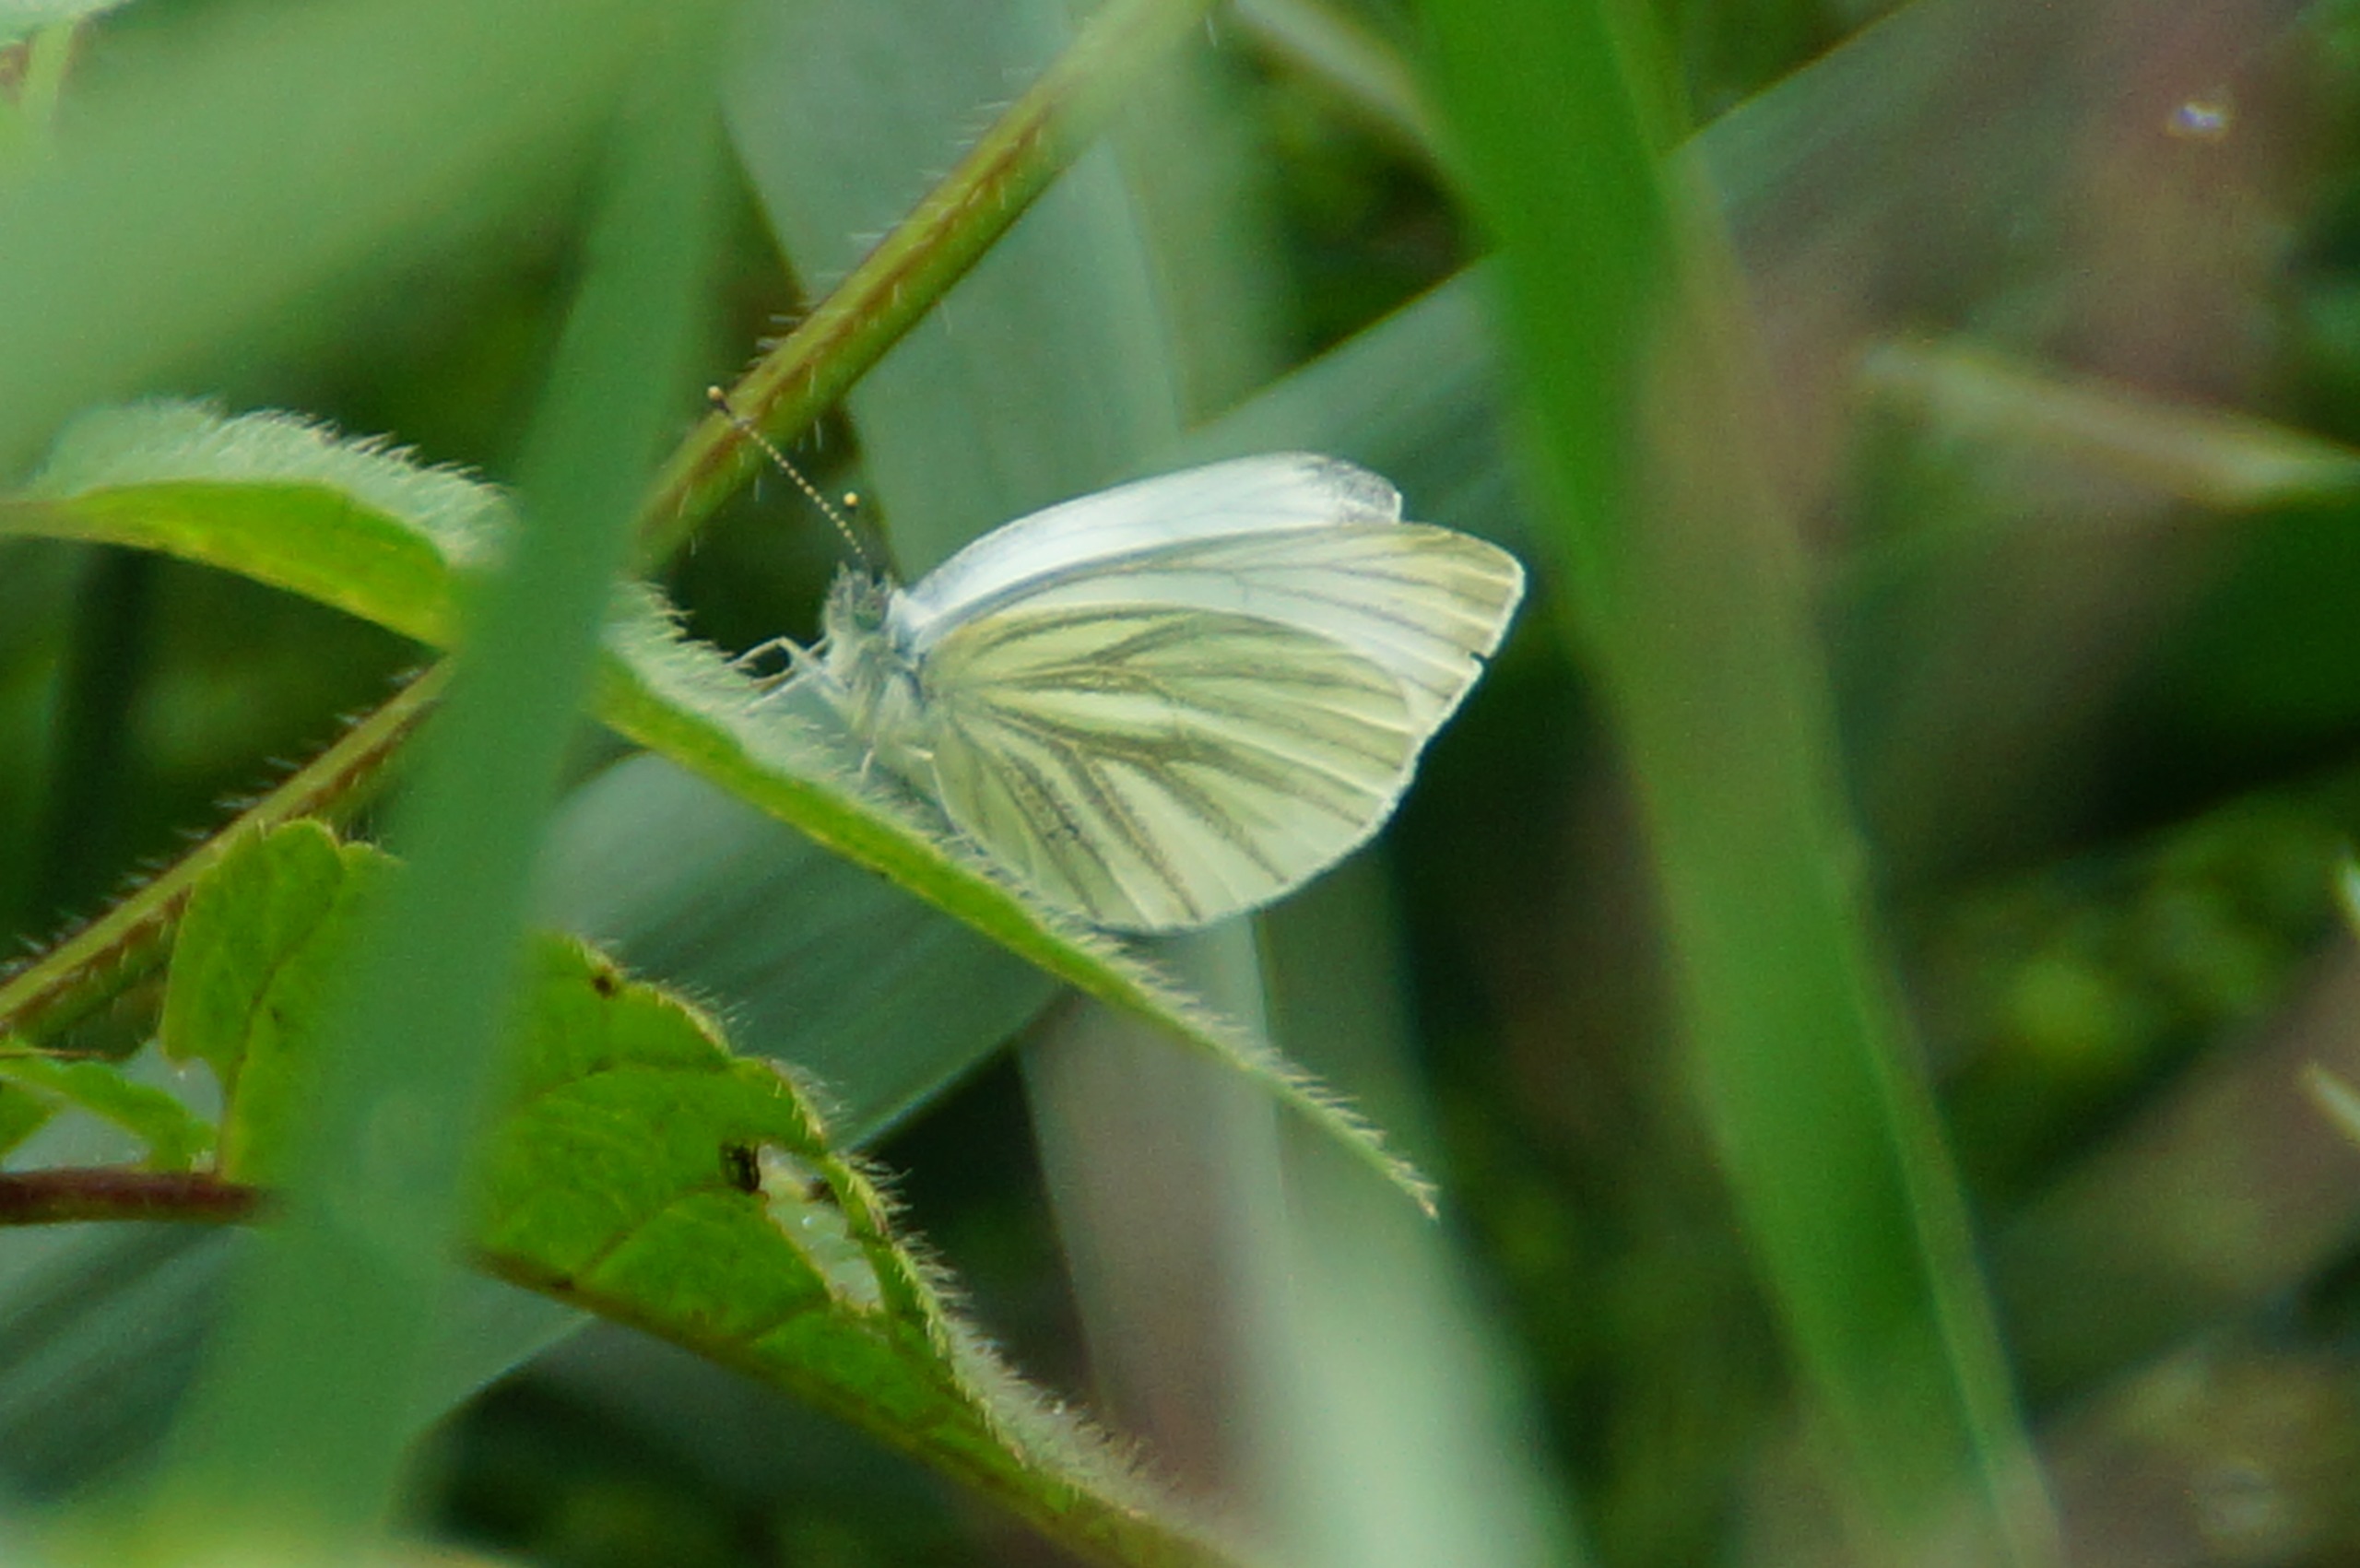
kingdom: Animalia
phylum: Arthropoda
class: Insecta
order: Lepidoptera
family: Pieridae
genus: Pieris
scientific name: Pieris napi
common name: Grønåret kålsommerfugl
